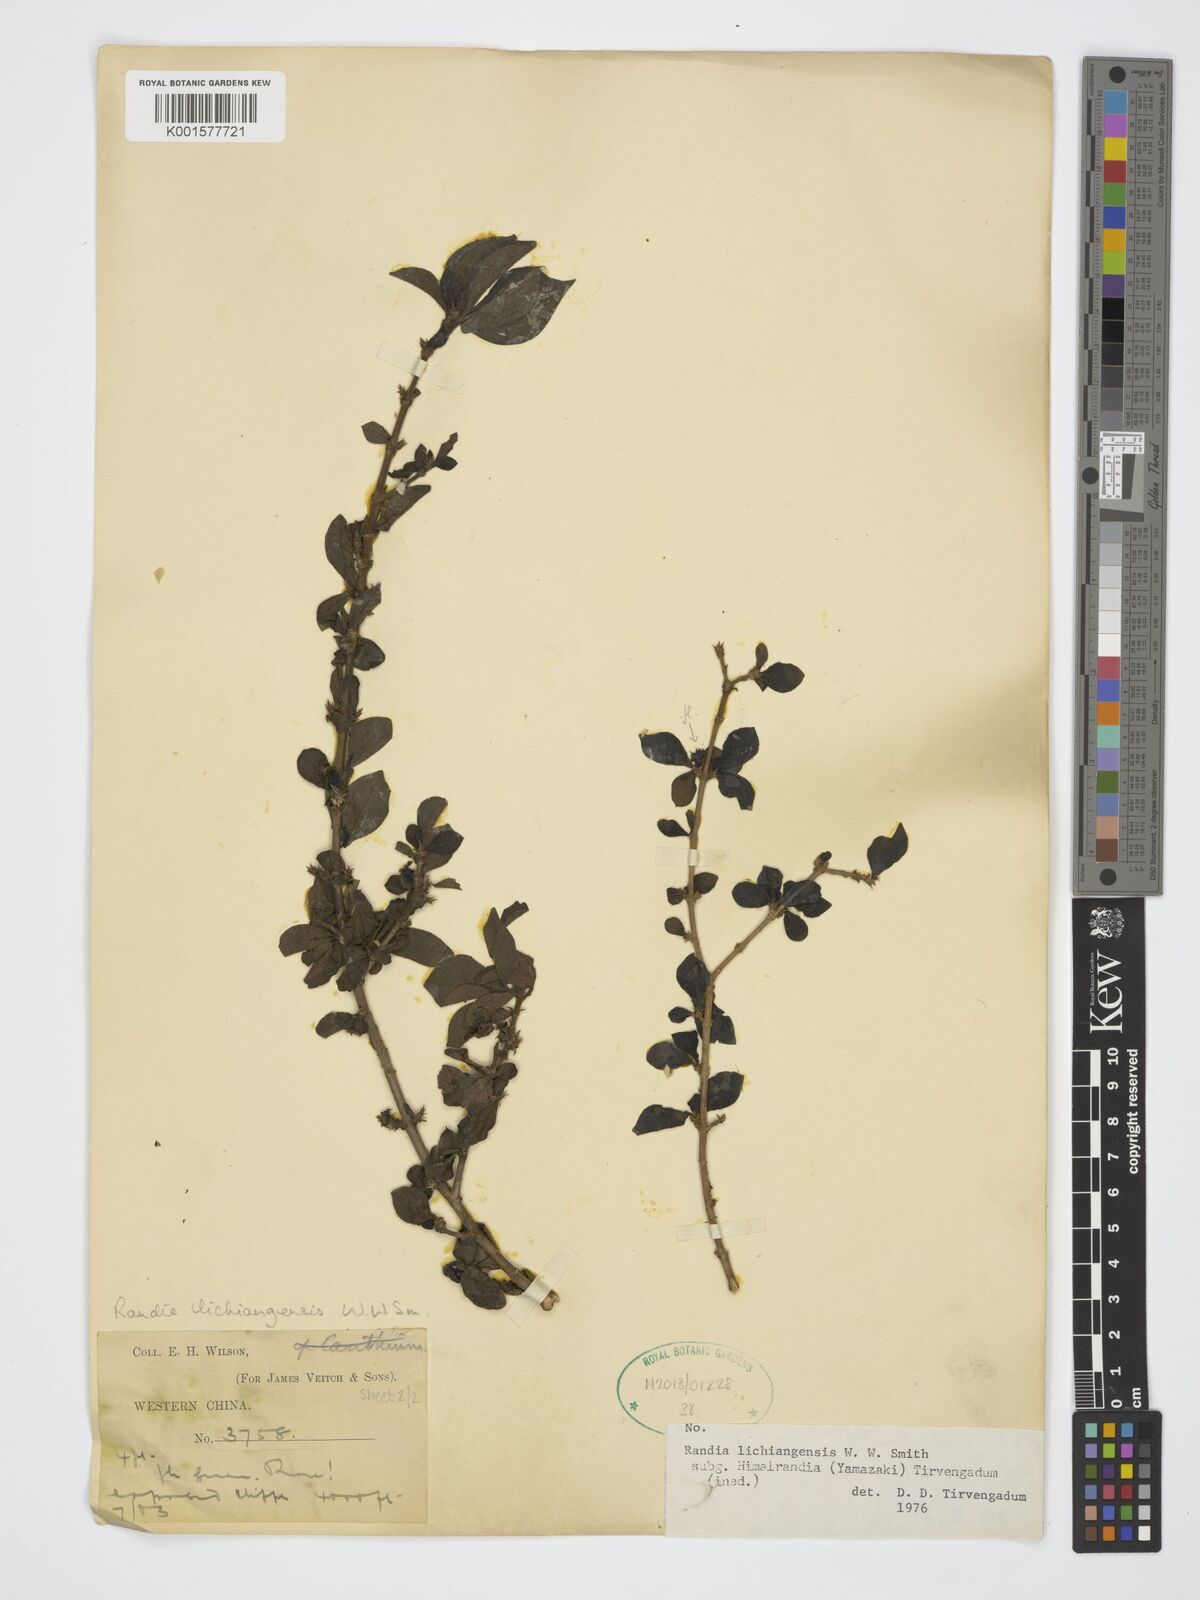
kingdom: Plantae
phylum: Tracheophyta
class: Magnoliopsida
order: Gentianales
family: Rubiaceae
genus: Himalrandia
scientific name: Himalrandia lichiangensis
